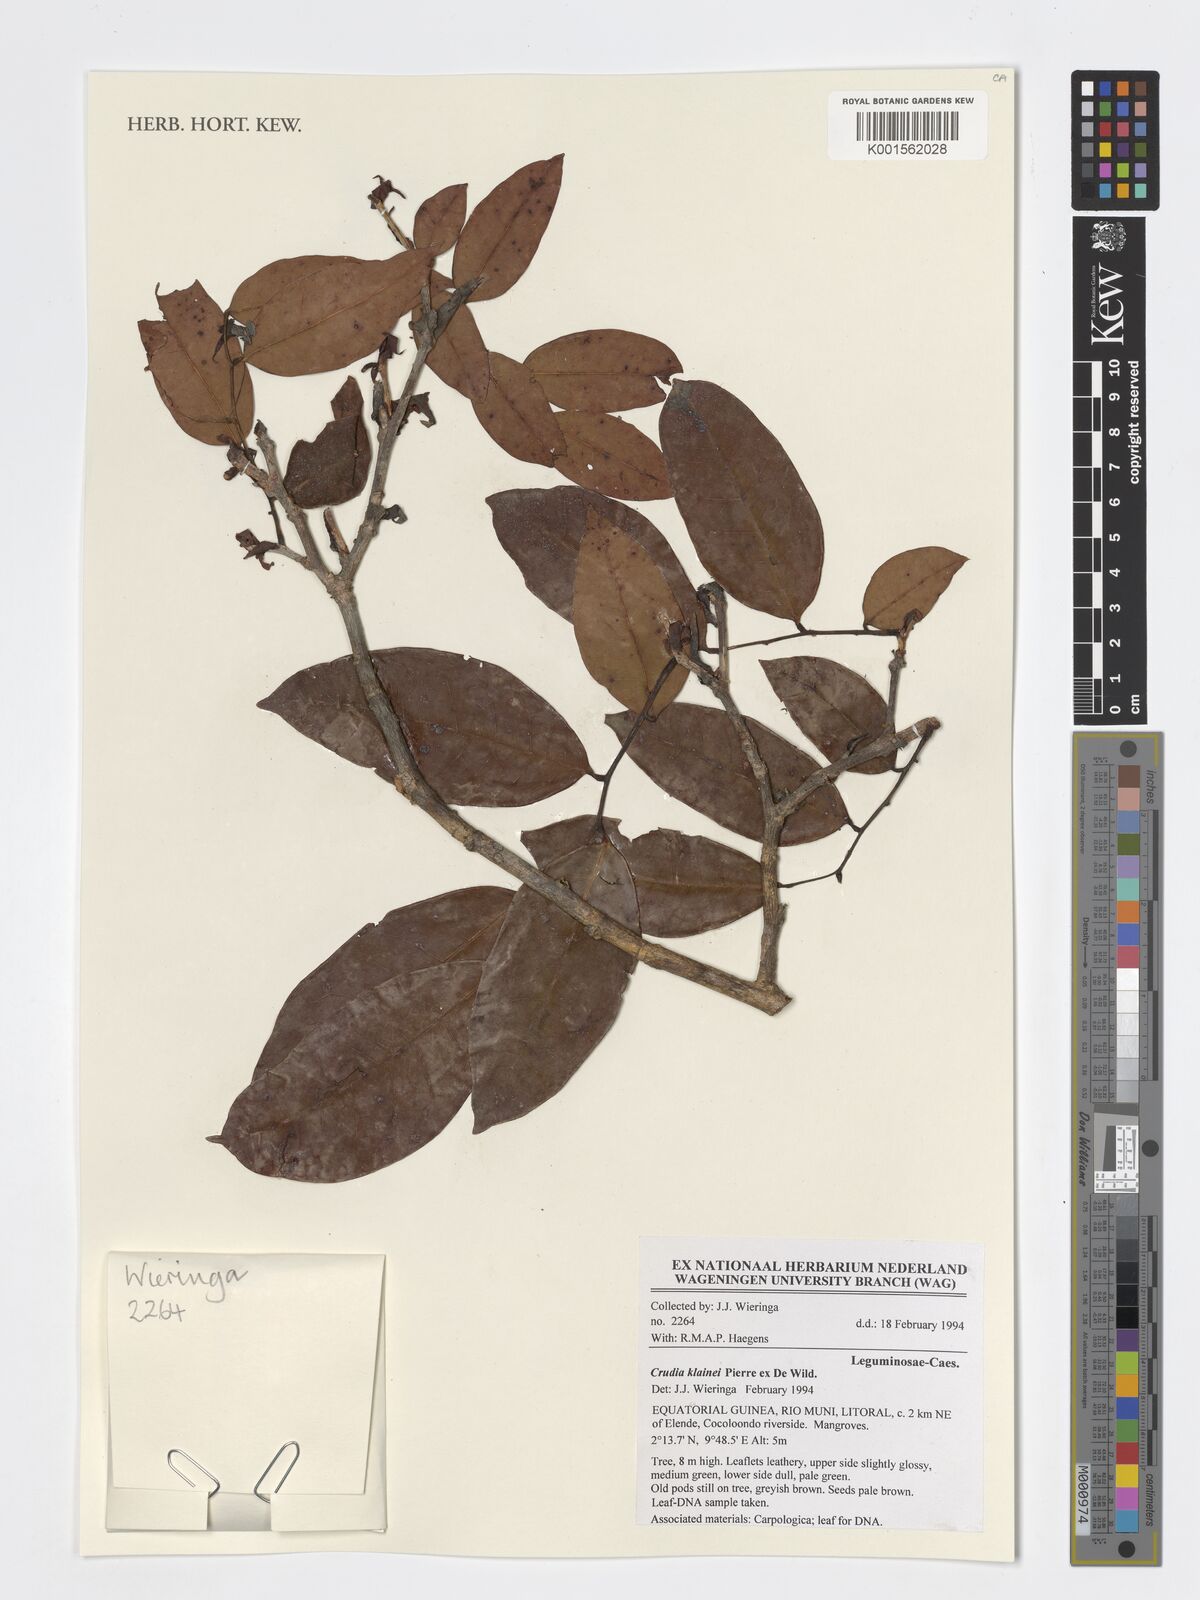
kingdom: Plantae
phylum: Tracheophyta
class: Magnoliopsida
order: Fabales
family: Fabaceae
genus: Crudia
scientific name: Crudia klainei
